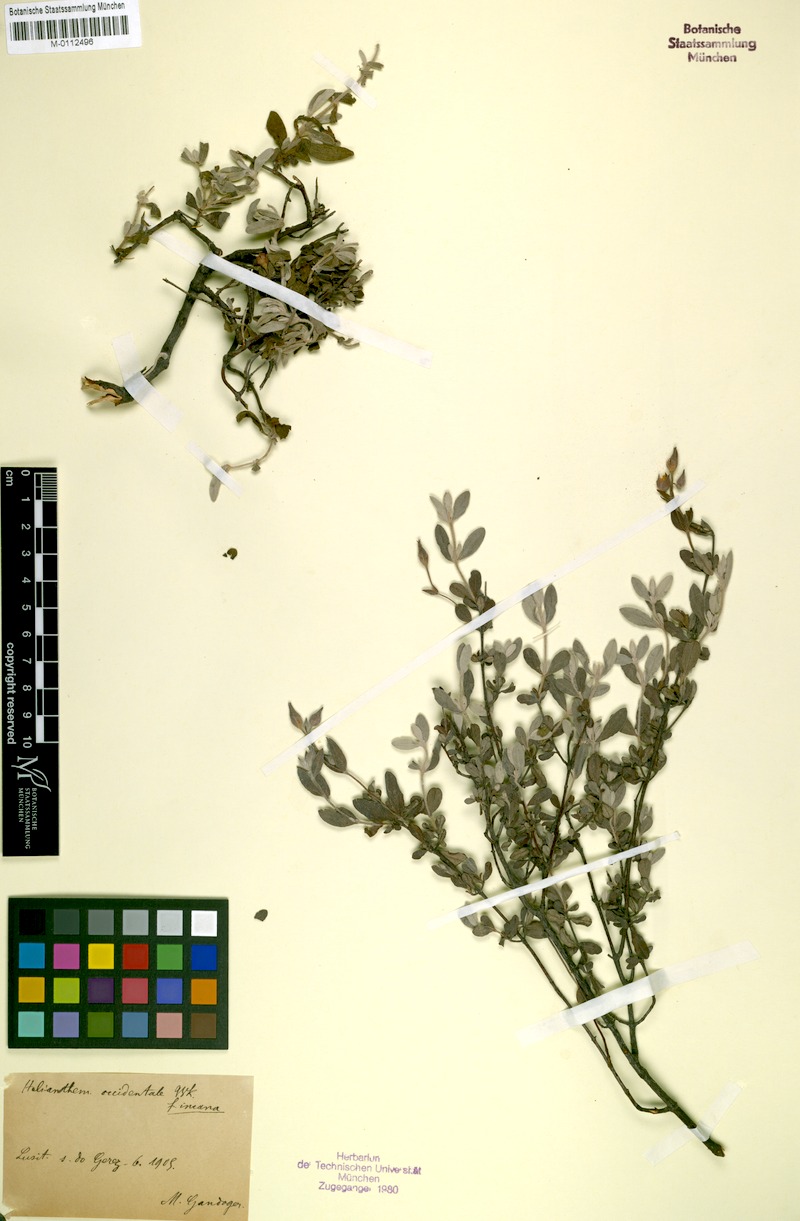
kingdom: Plantae
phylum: Tracheophyta
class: Magnoliopsida
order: Malvales
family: Cistaceae
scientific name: Cistaceae
